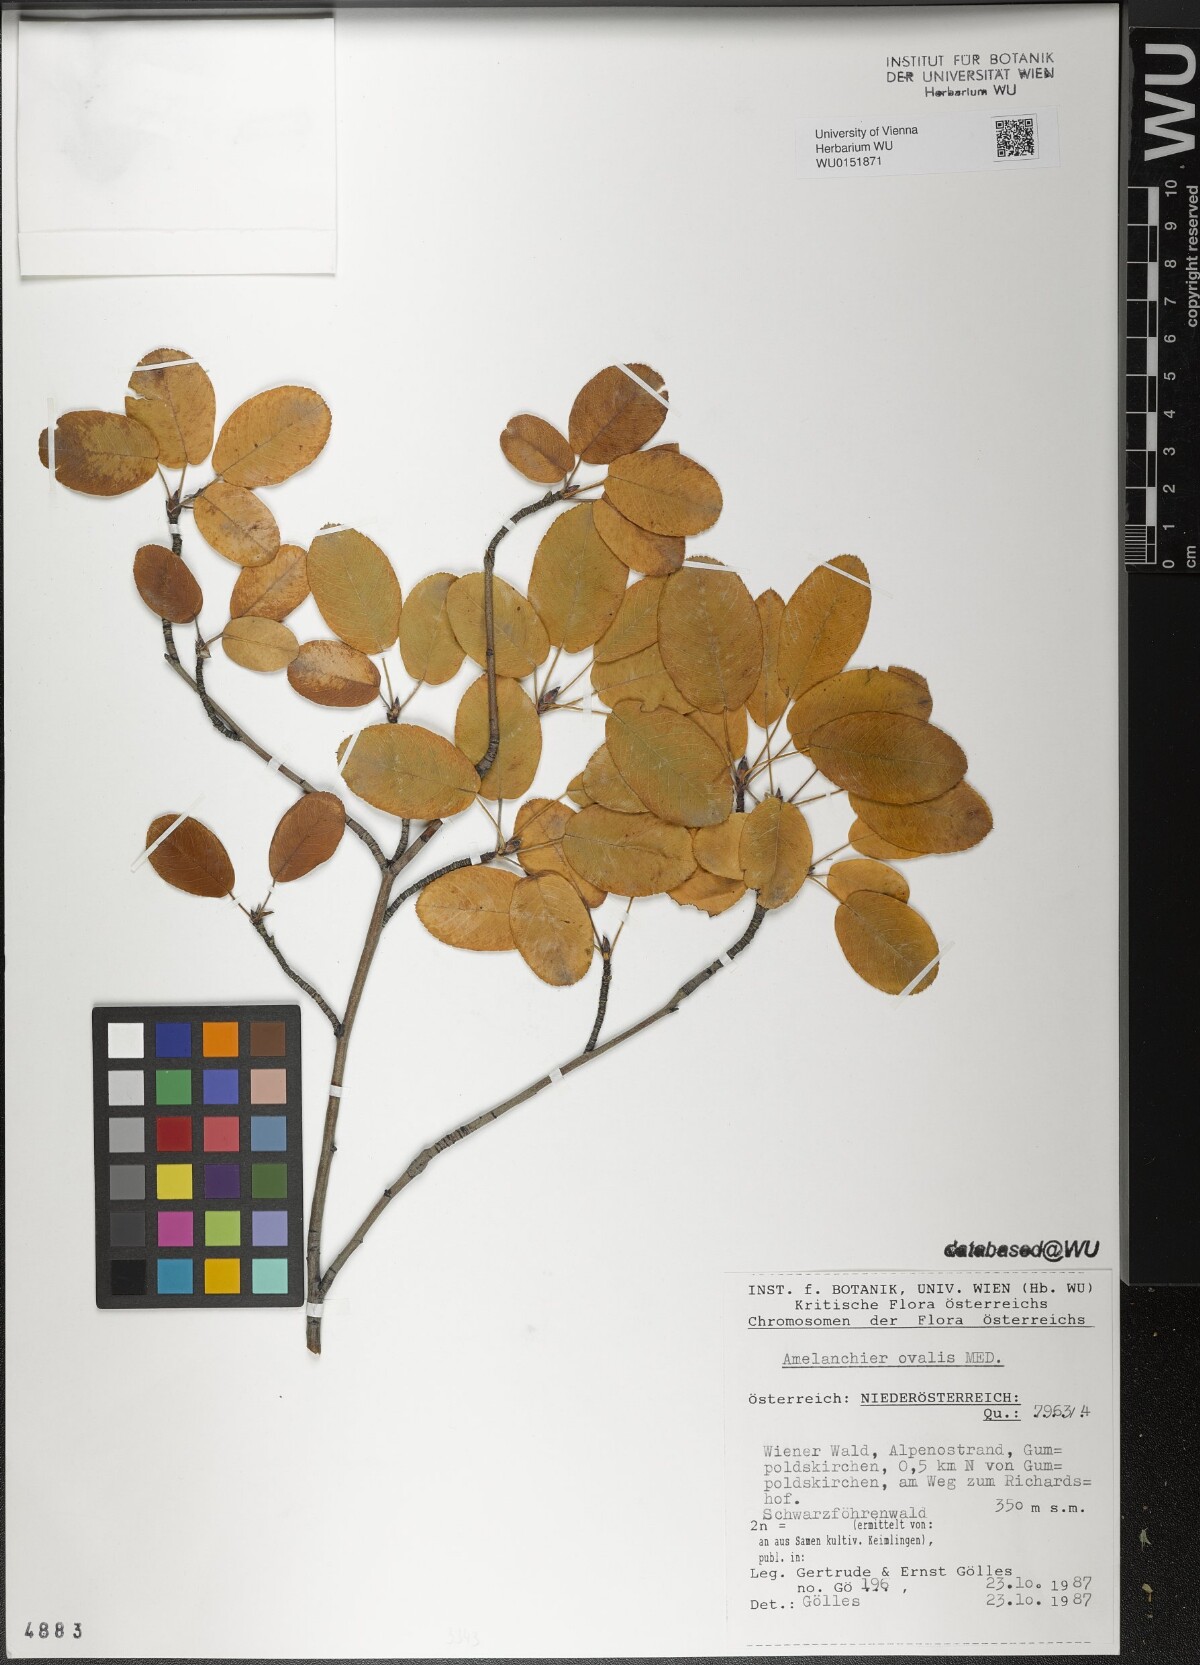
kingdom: Plantae
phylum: Tracheophyta
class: Magnoliopsida
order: Rosales
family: Rosaceae
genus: Amelanchier
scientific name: Amelanchier ovalis
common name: Serviceberry
